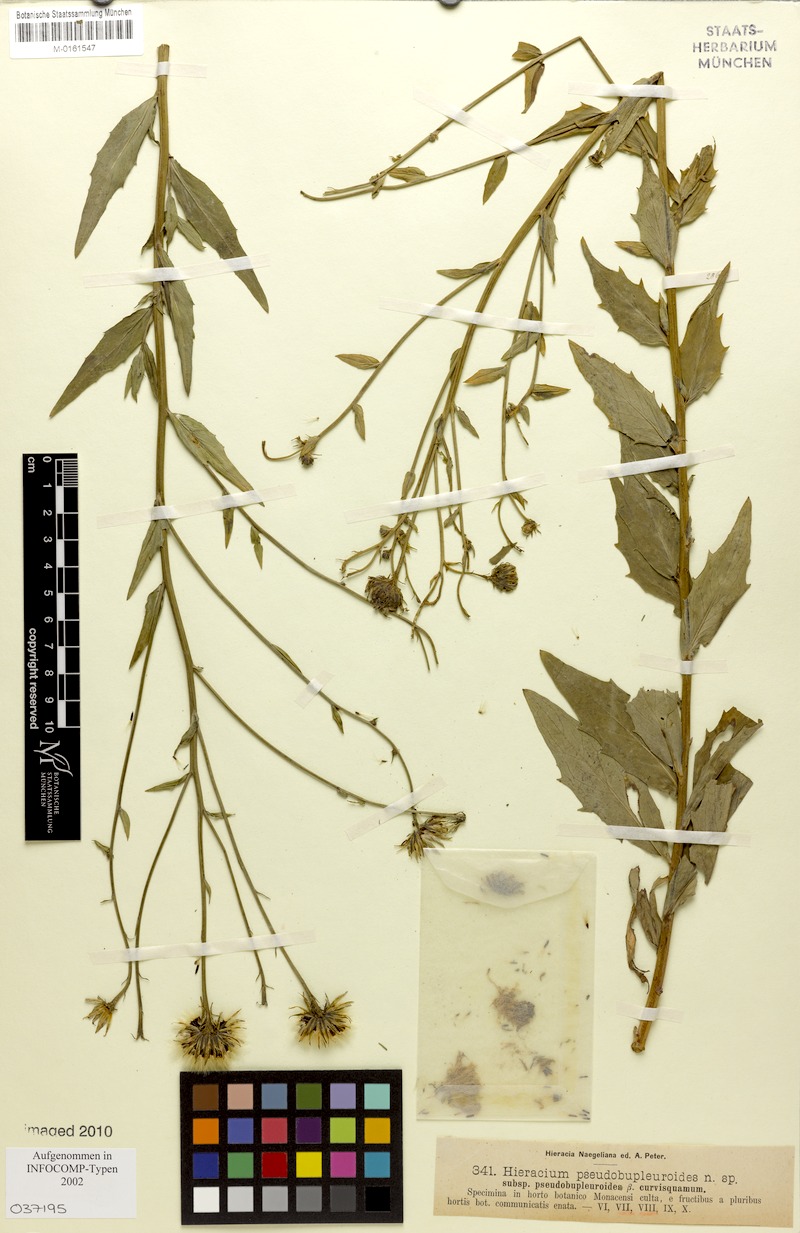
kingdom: Plantae
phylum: Tracheophyta
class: Magnoliopsida
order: Asterales
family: Asteraceae
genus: Hieracium
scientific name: Hieracium vindobonense
